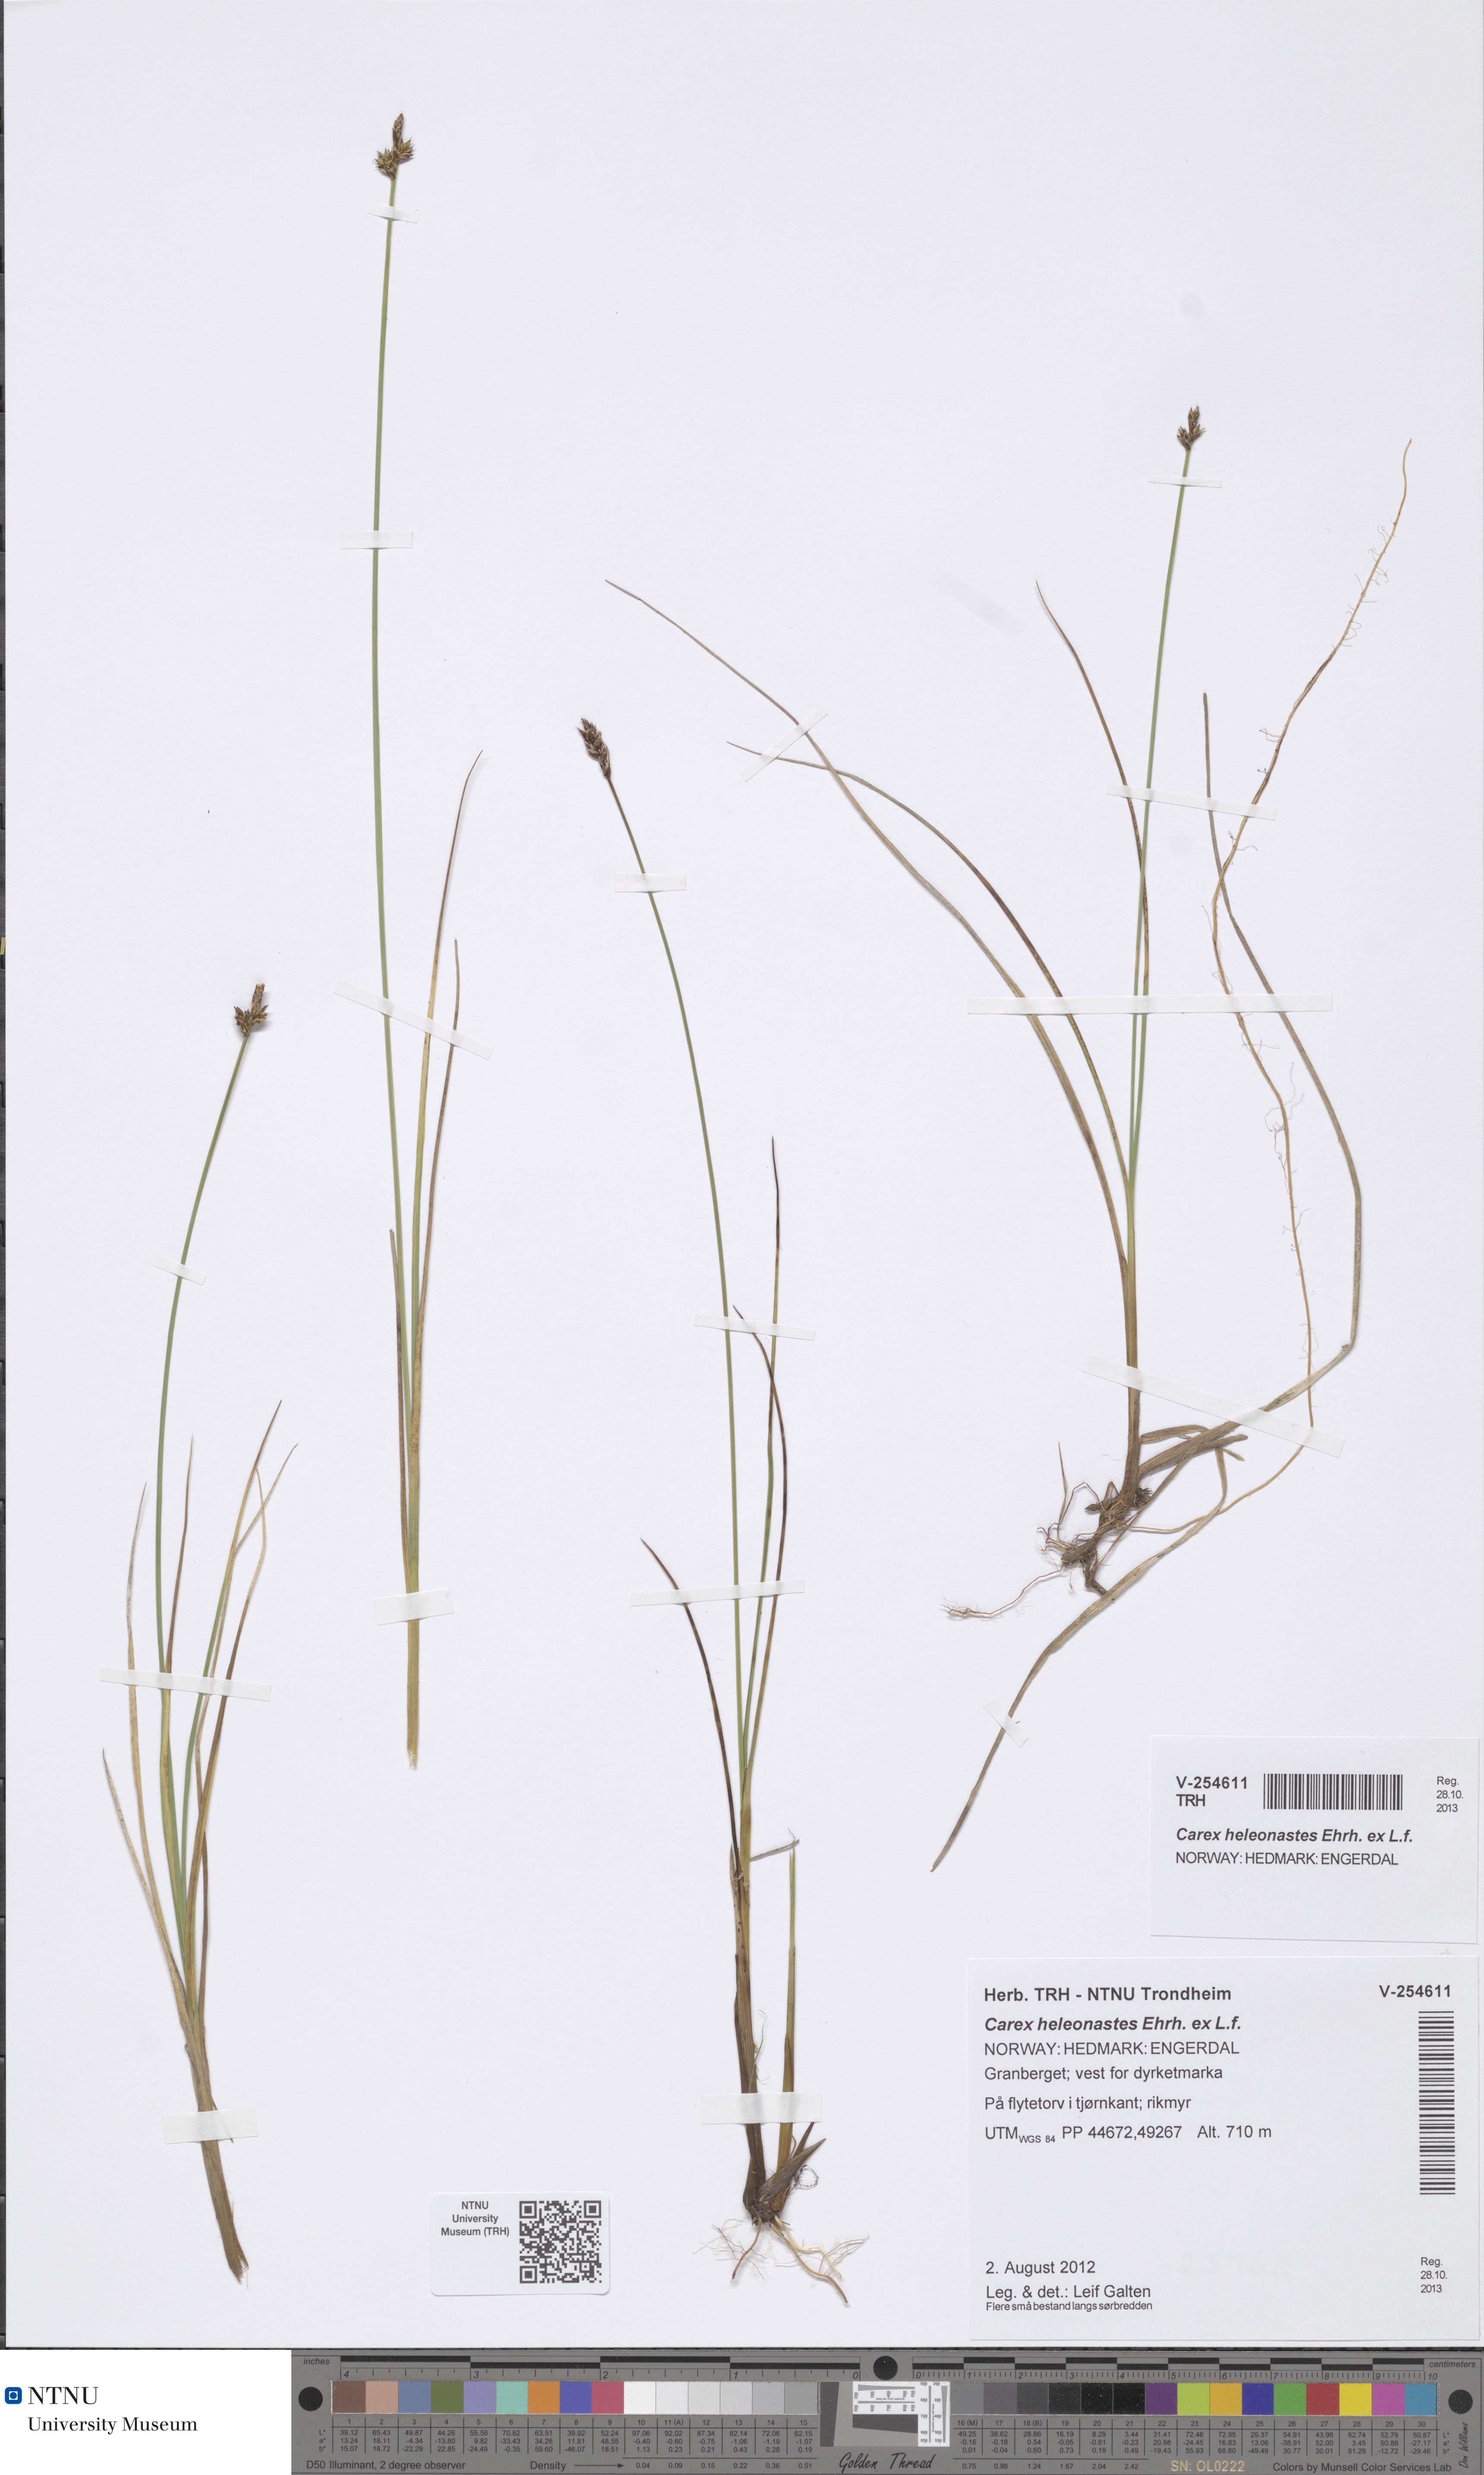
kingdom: Plantae
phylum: Tracheophyta
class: Liliopsida
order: Poales
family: Cyperaceae
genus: Carex
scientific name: Carex heleonastes
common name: Hudson bay sedge
